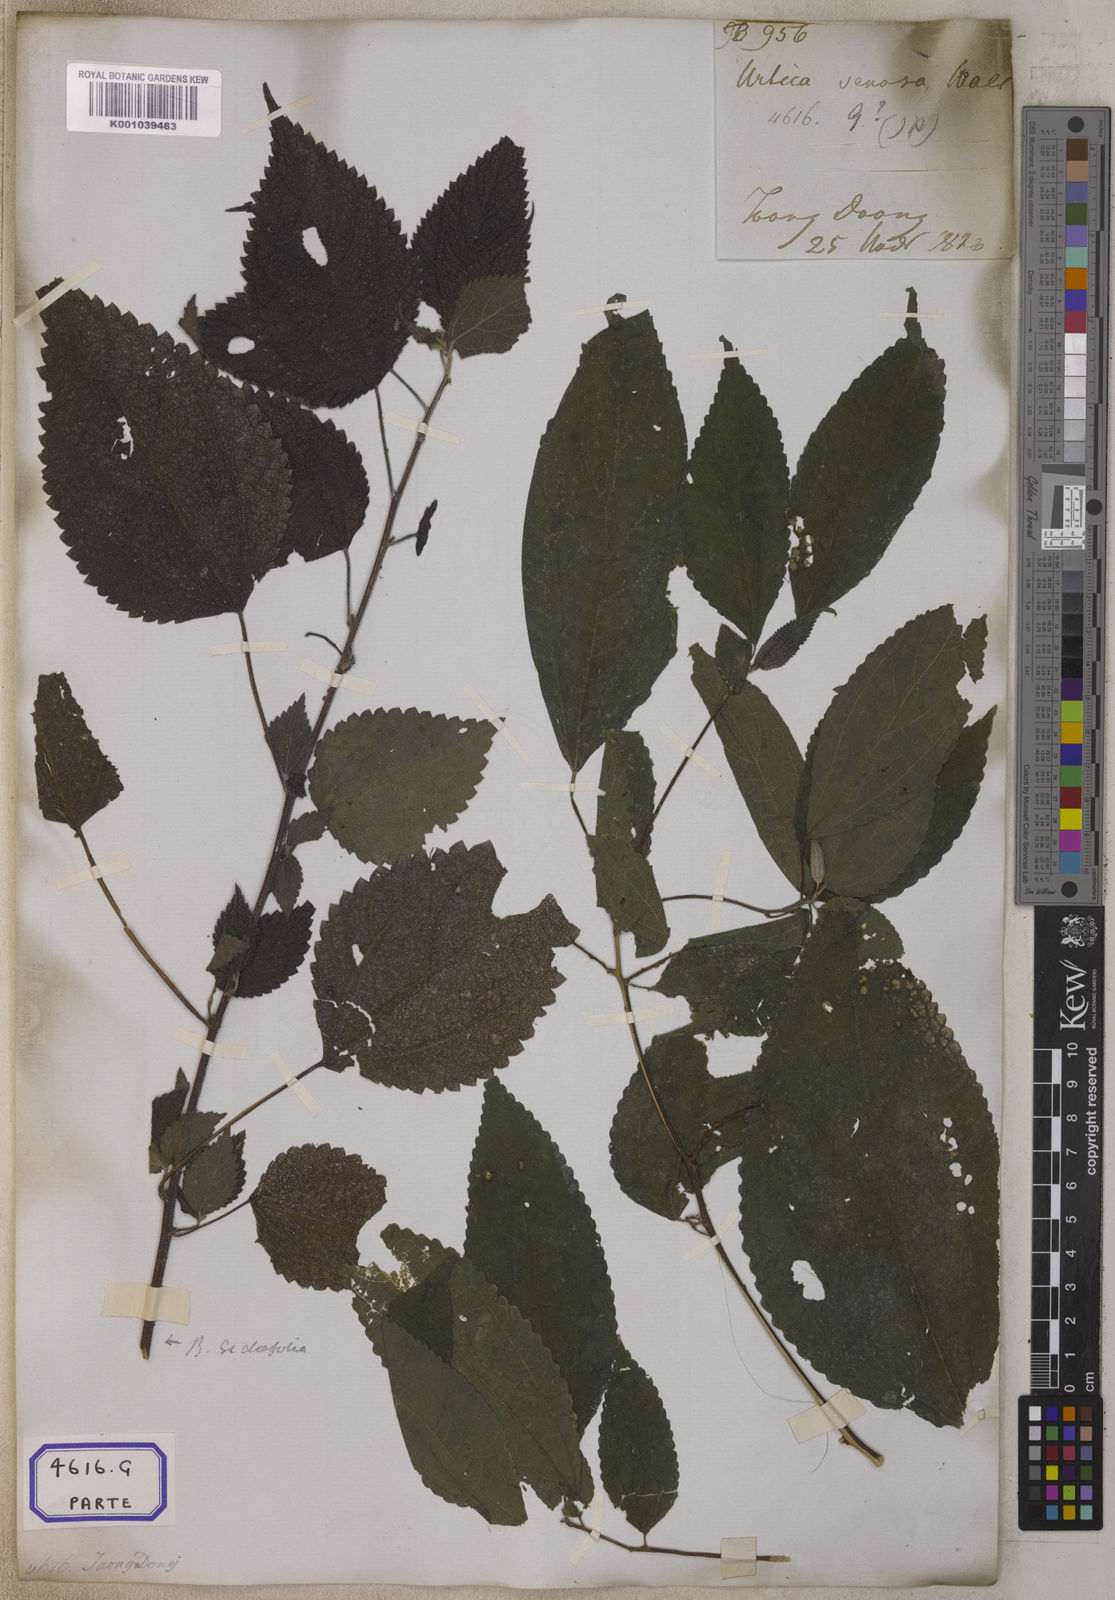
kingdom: Plantae
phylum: Tracheophyta
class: Magnoliopsida
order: Rosales
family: Urticaceae
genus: Pouzolzia
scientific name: Pouzolzia sanguinea
